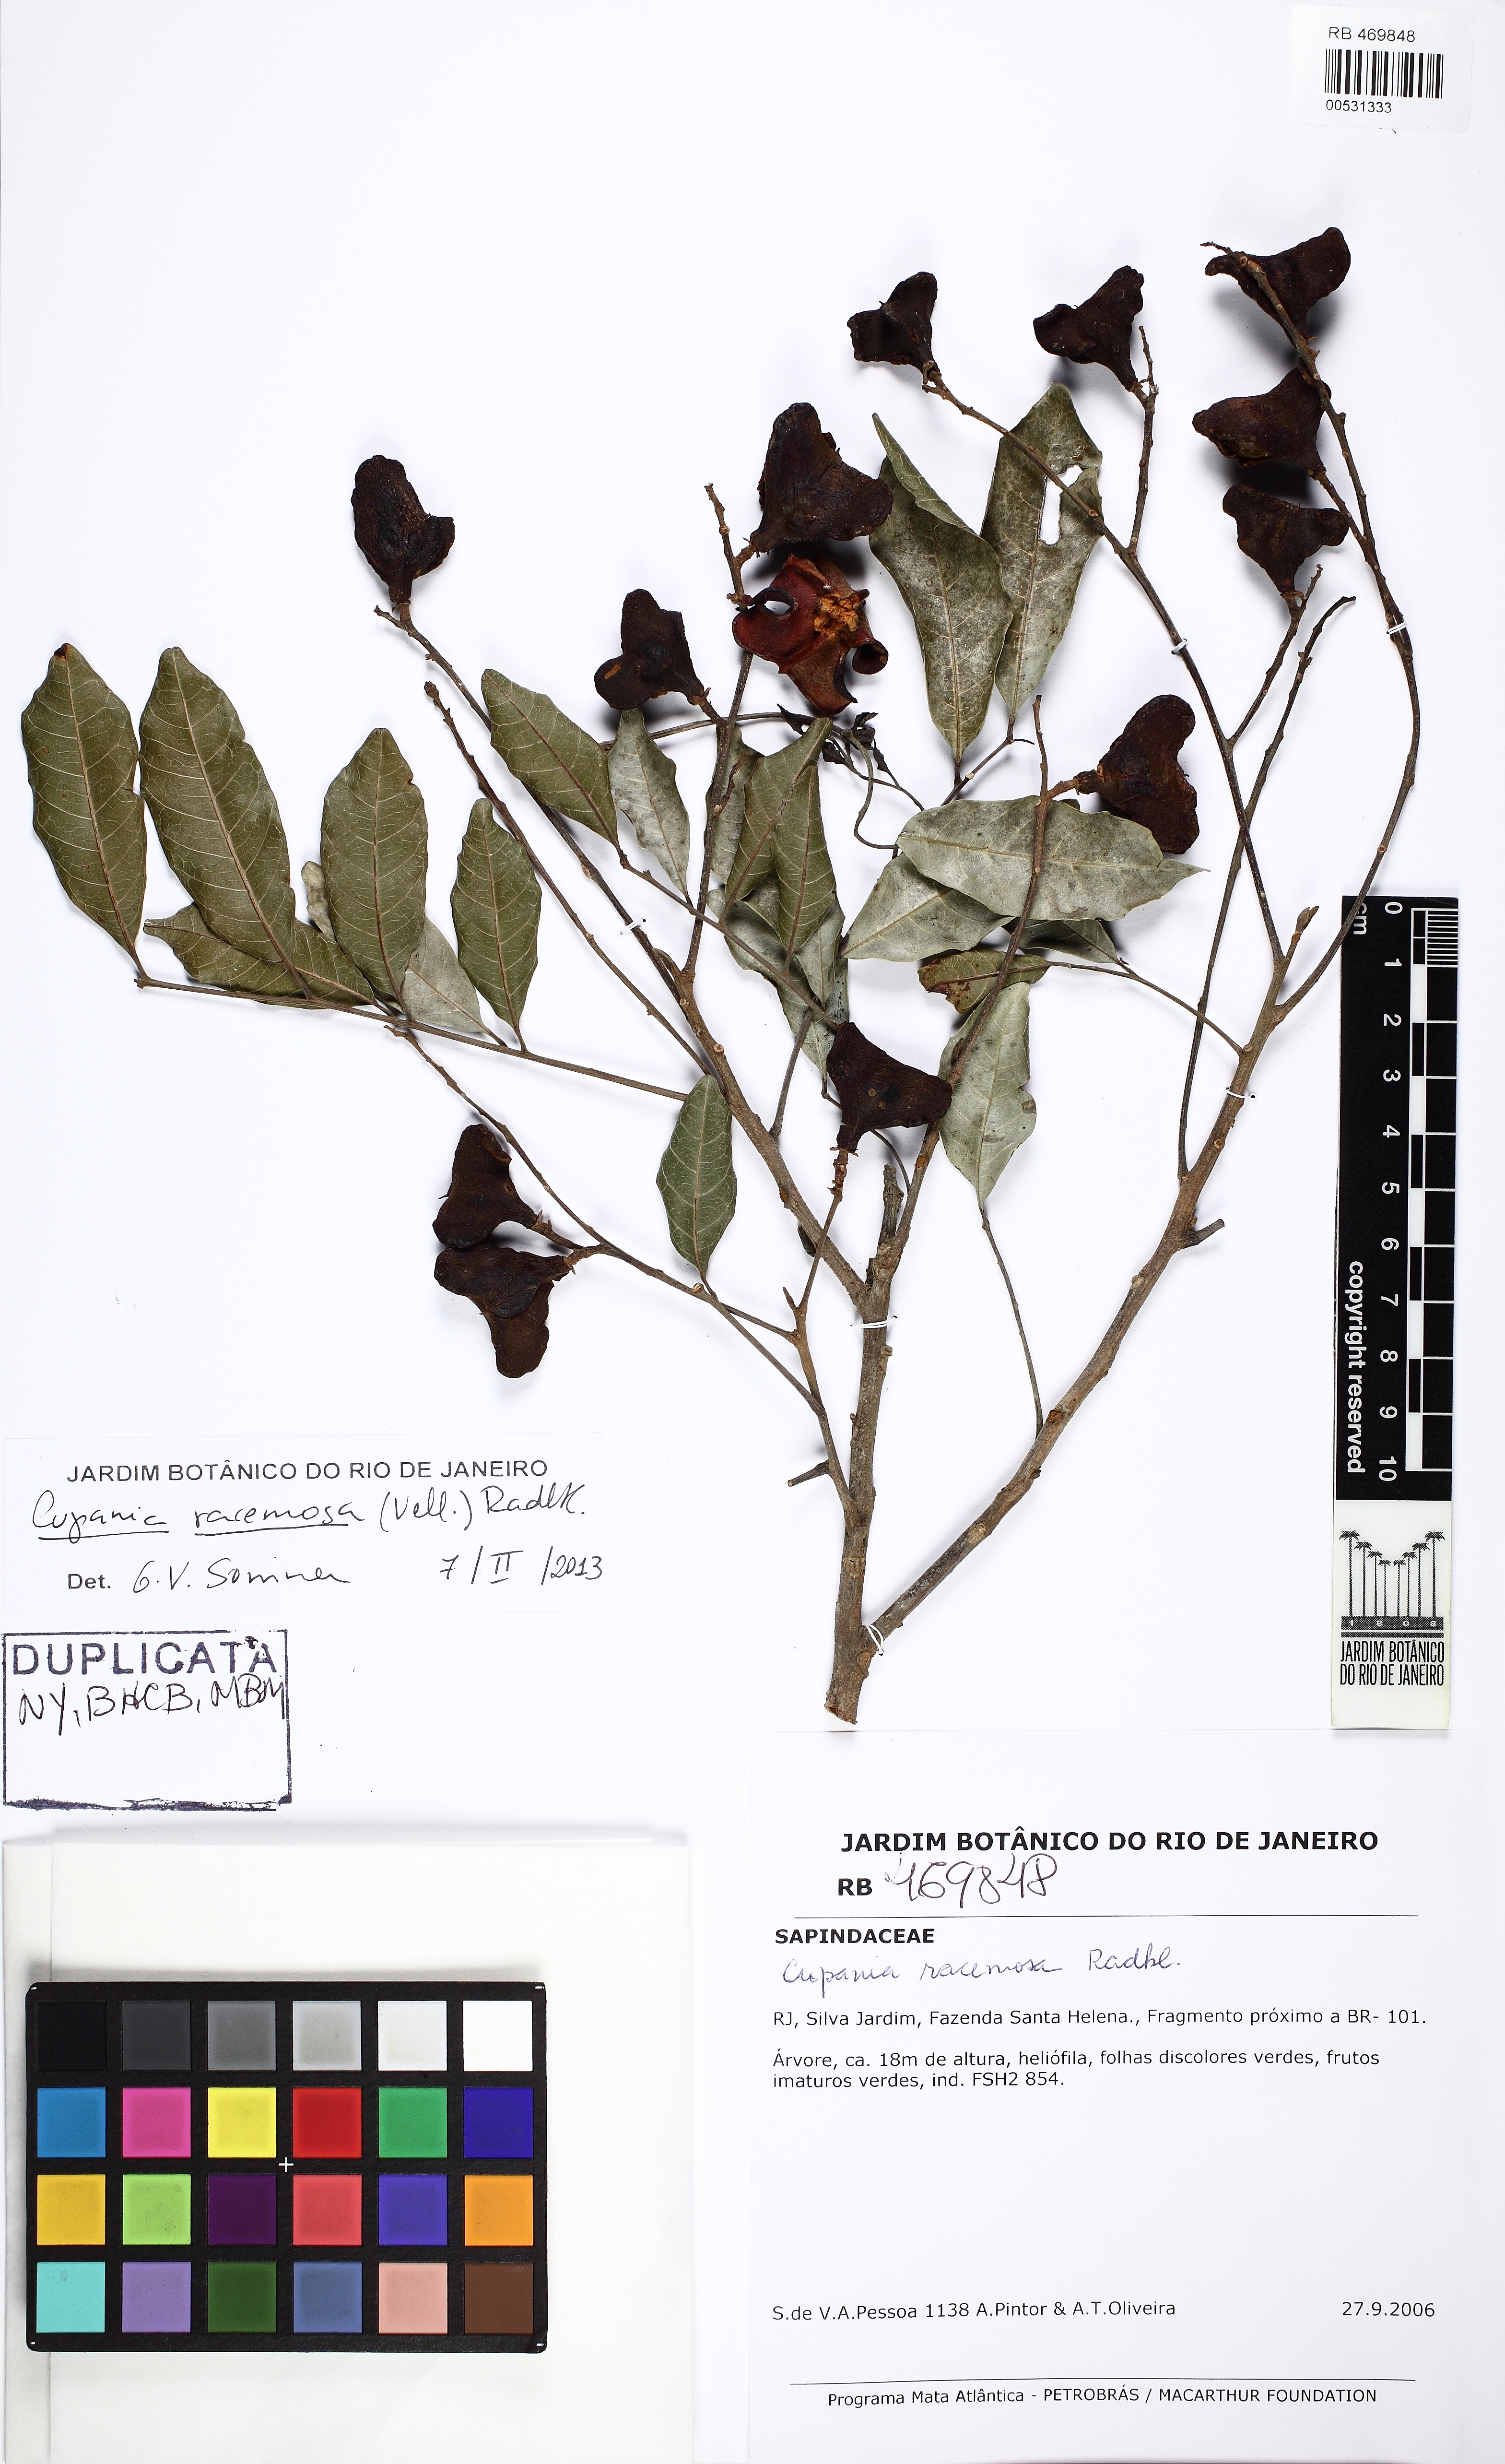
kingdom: Plantae
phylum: Tracheophyta
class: Magnoliopsida
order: Sapindales
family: Sapindaceae
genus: Cupania
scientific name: Cupania racemosa
